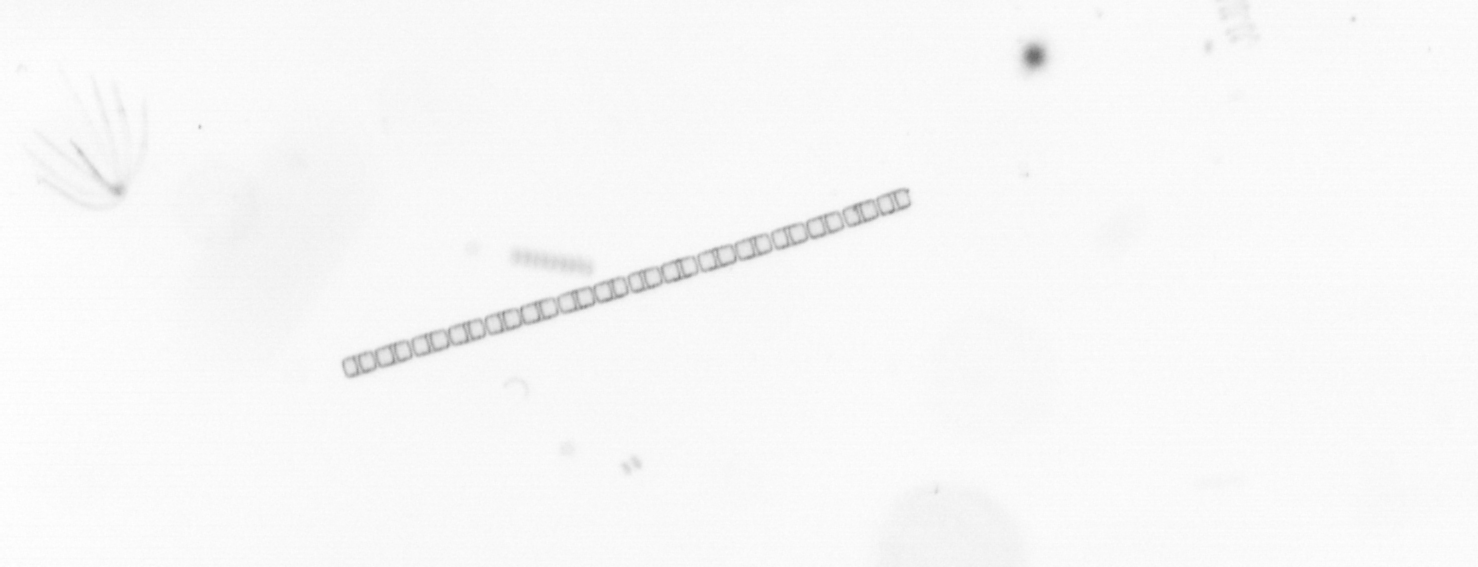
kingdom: Chromista
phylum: Ochrophyta
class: Bacillariophyceae
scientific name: Bacillariophyceae
